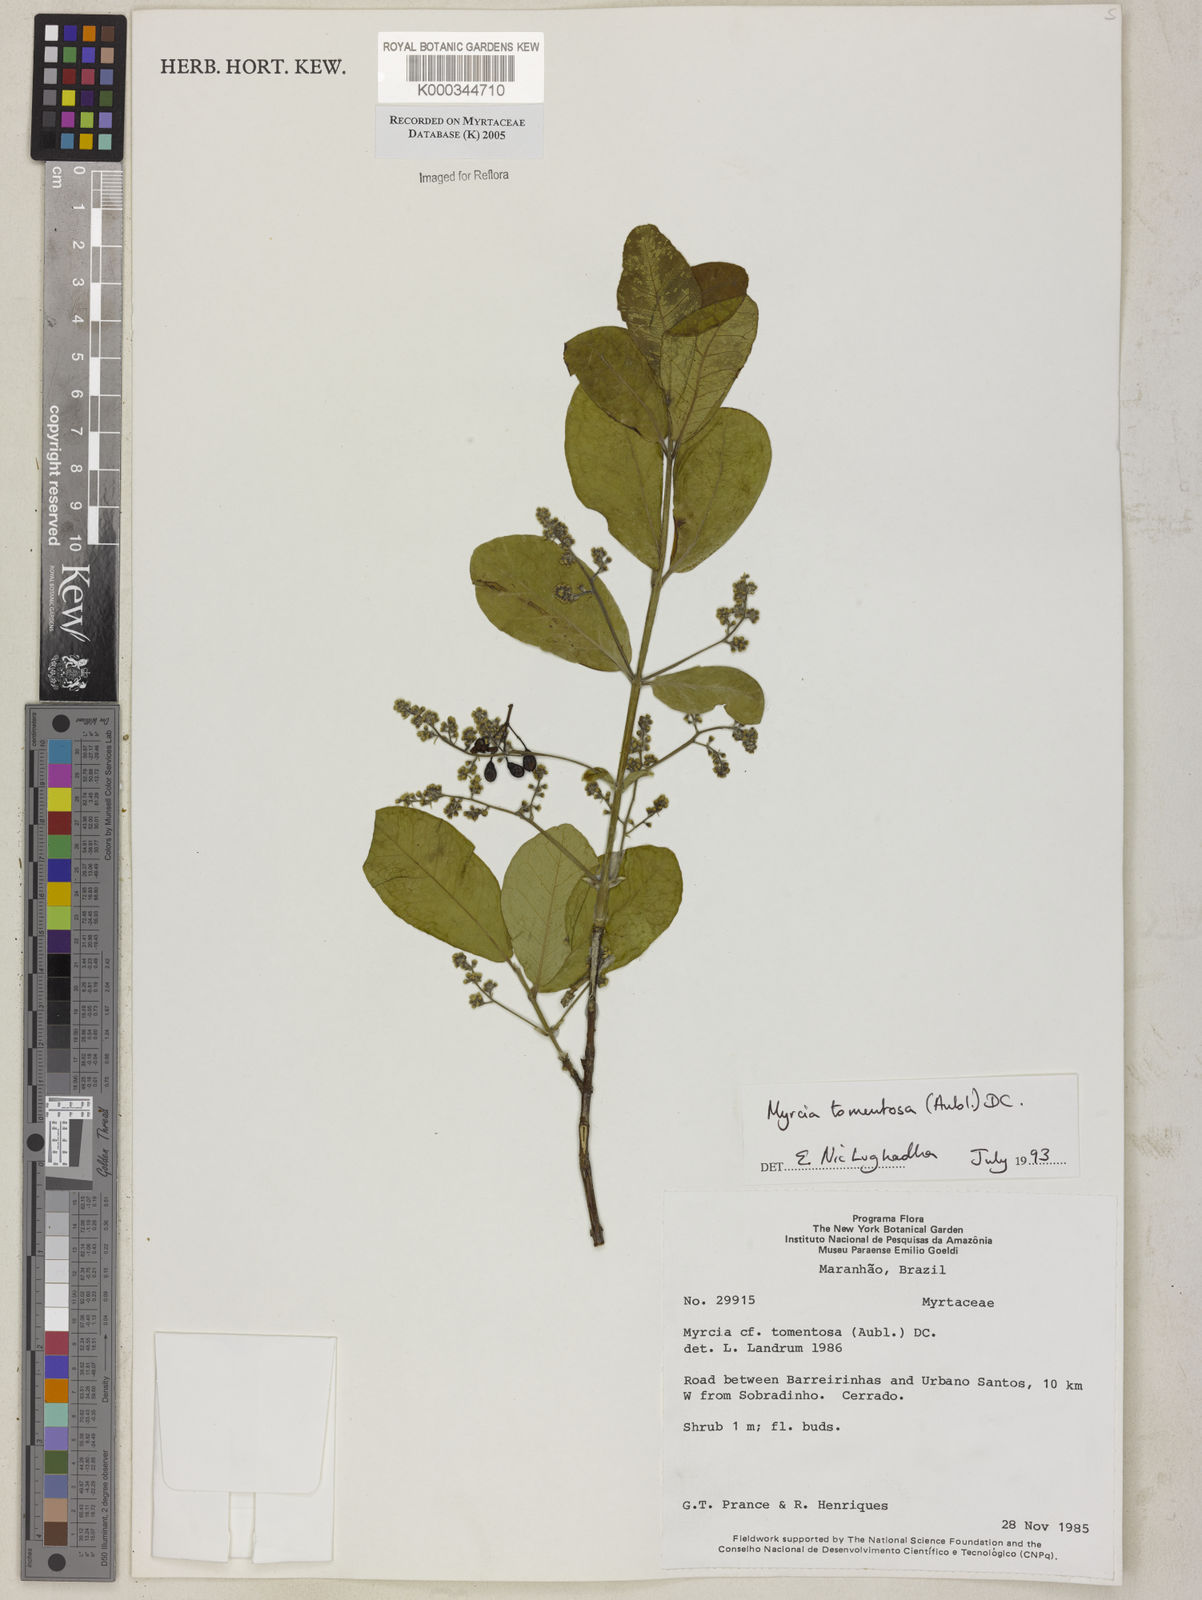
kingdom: Plantae
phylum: Tracheophyta
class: Magnoliopsida
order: Myrtales
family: Myrtaceae
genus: Myrcia
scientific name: Myrcia tomentosa
